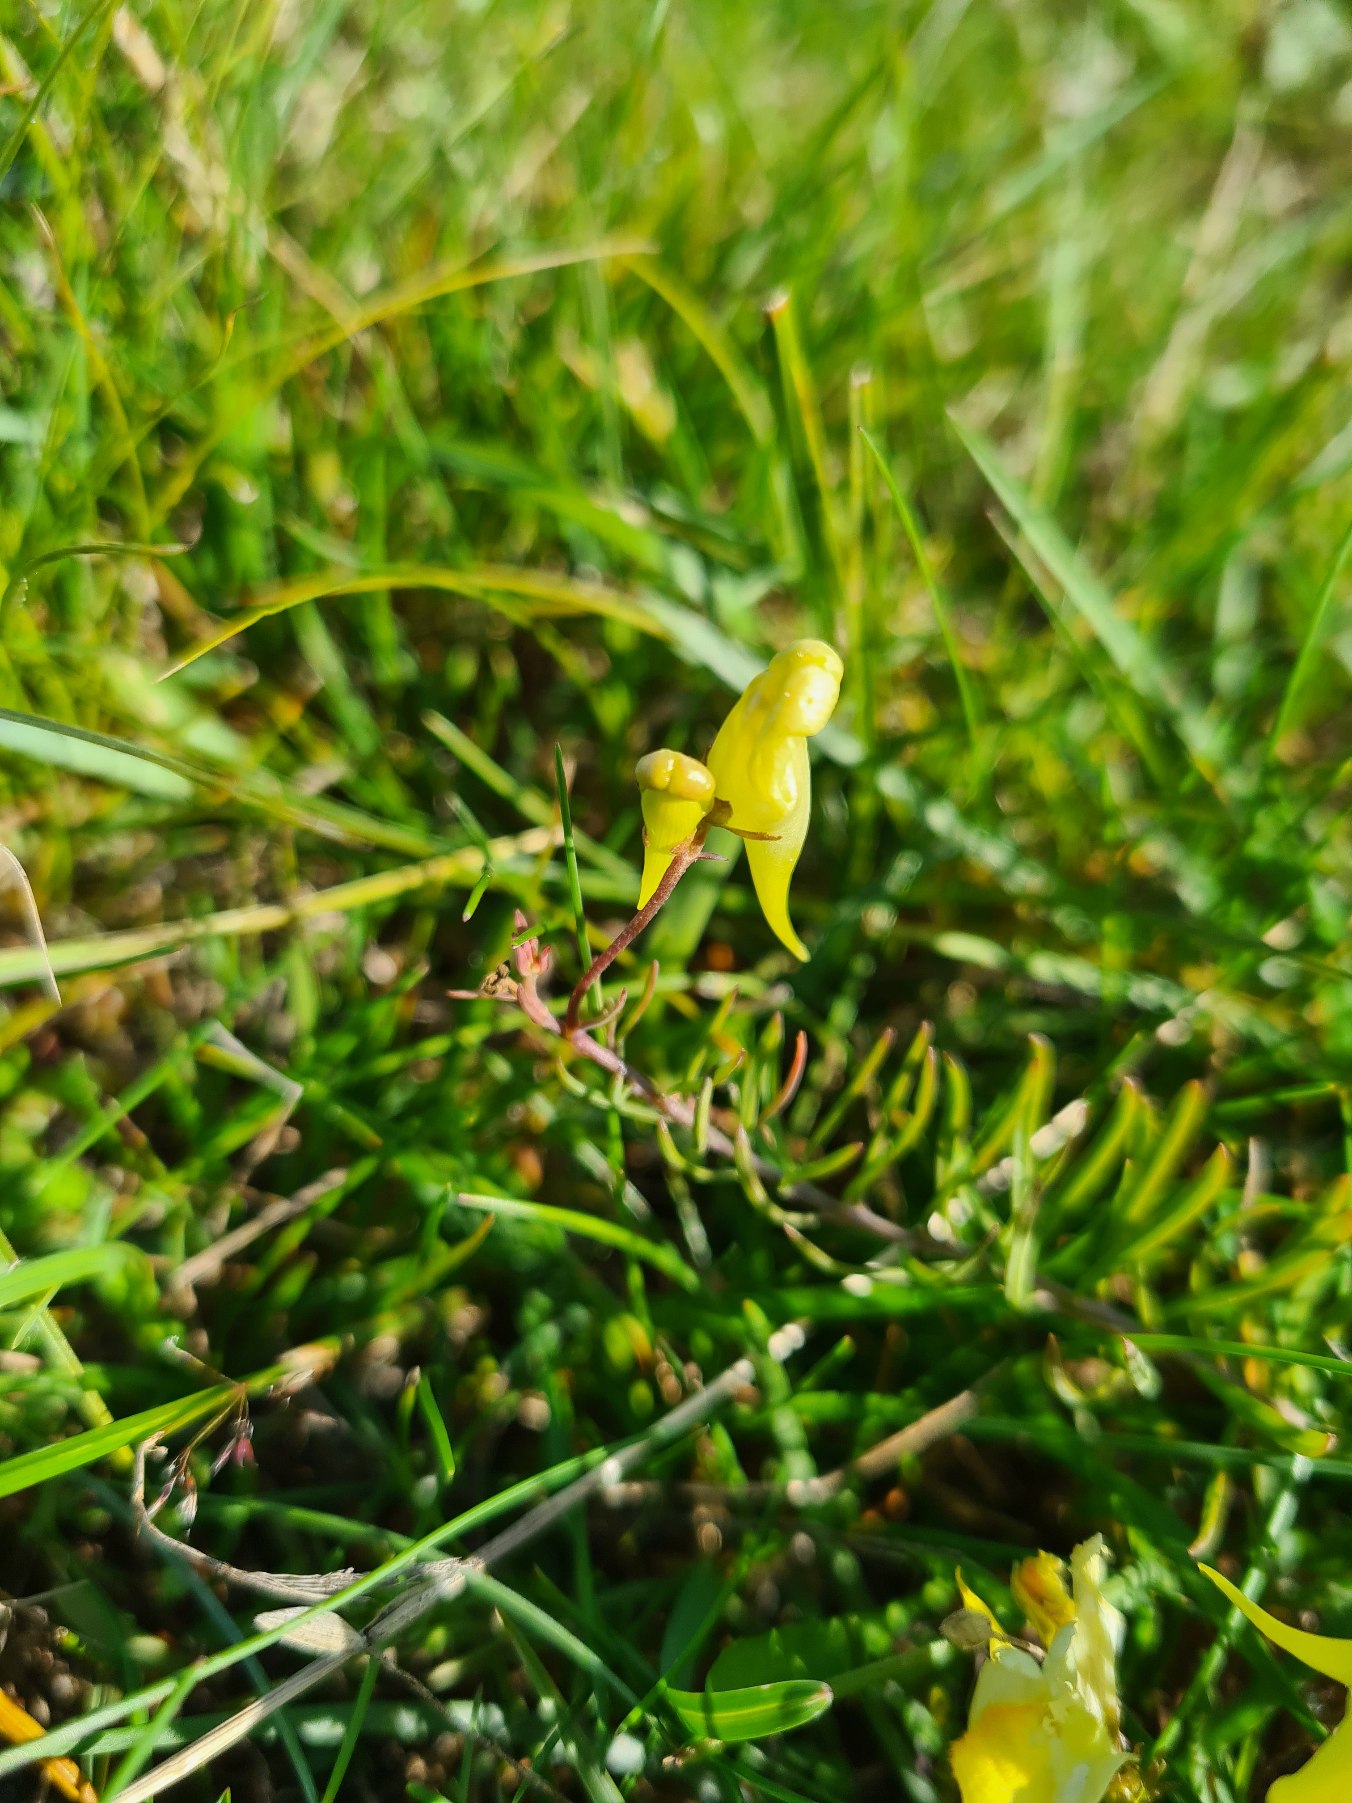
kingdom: Plantae
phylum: Tracheophyta
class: Magnoliopsida
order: Lamiales
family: Plantaginaceae
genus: Linaria
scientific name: Linaria vulgaris
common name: Almindelig torskemund
